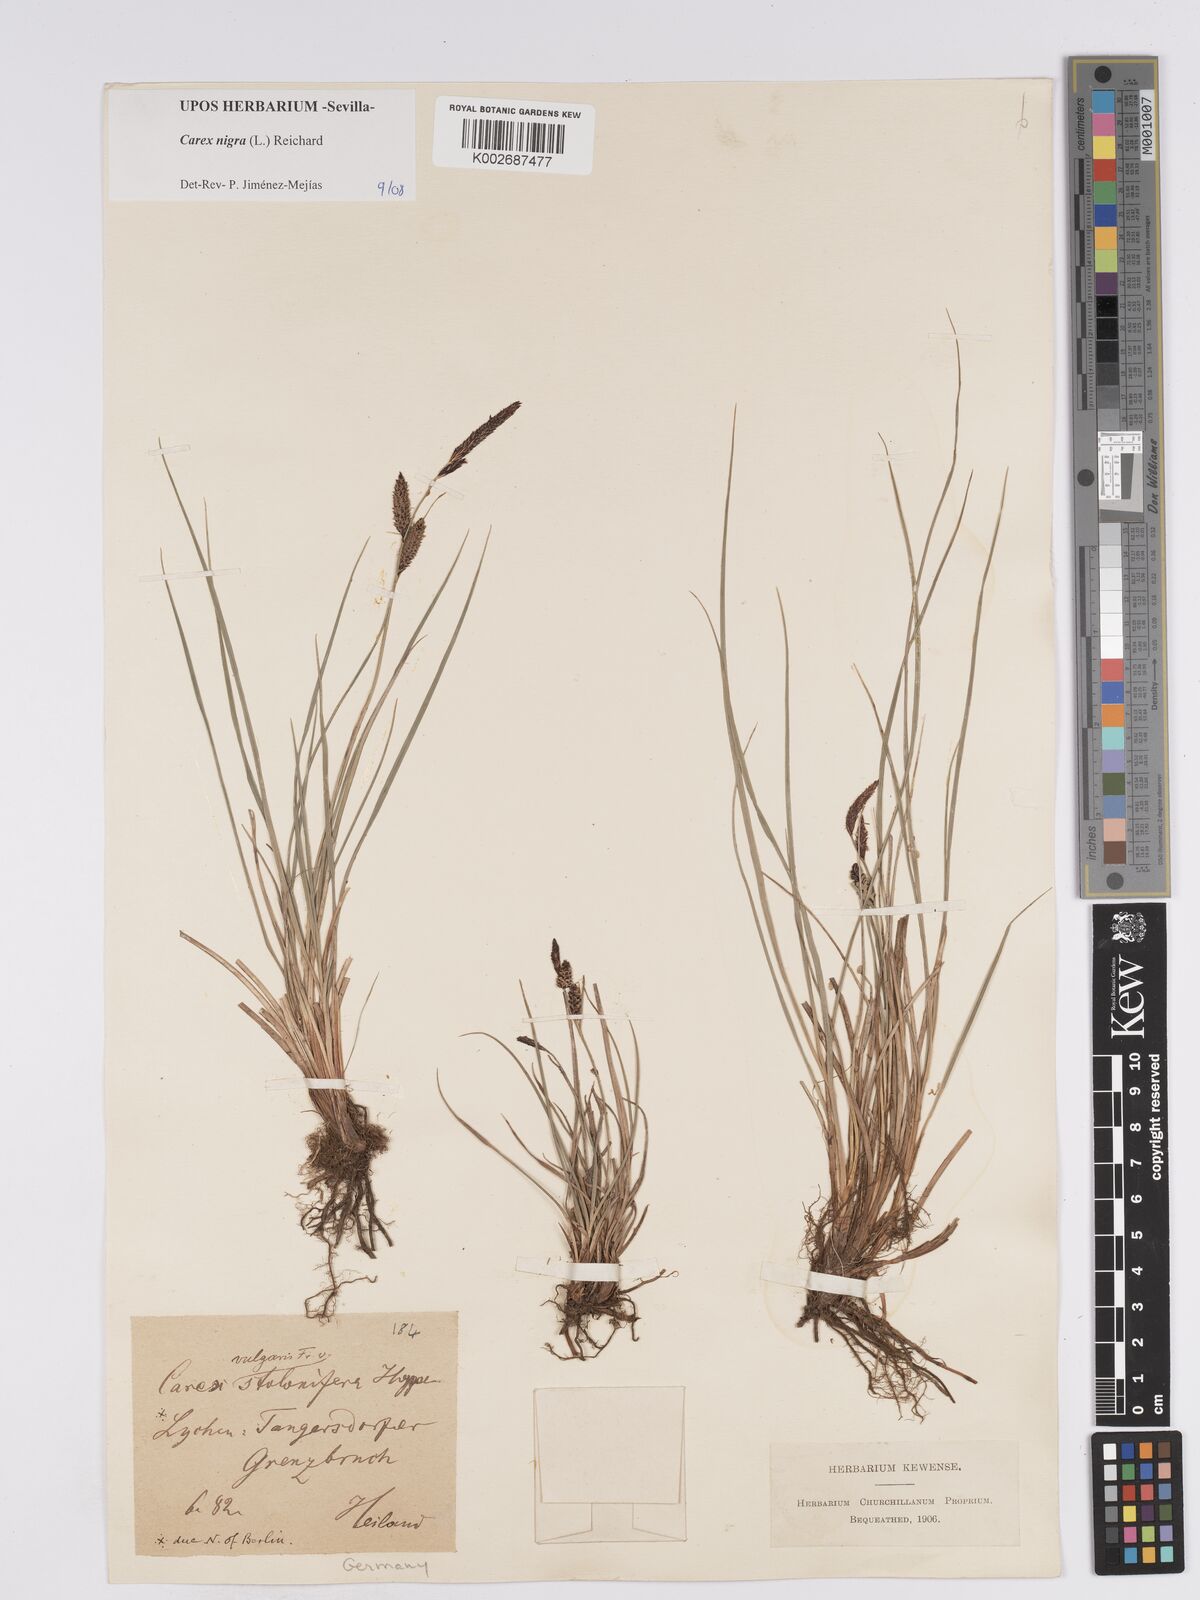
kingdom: Plantae
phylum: Tracheophyta
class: Liliopsida
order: Poales
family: Cyperaceae
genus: Carex
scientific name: Carex nigra
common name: Common sedge
